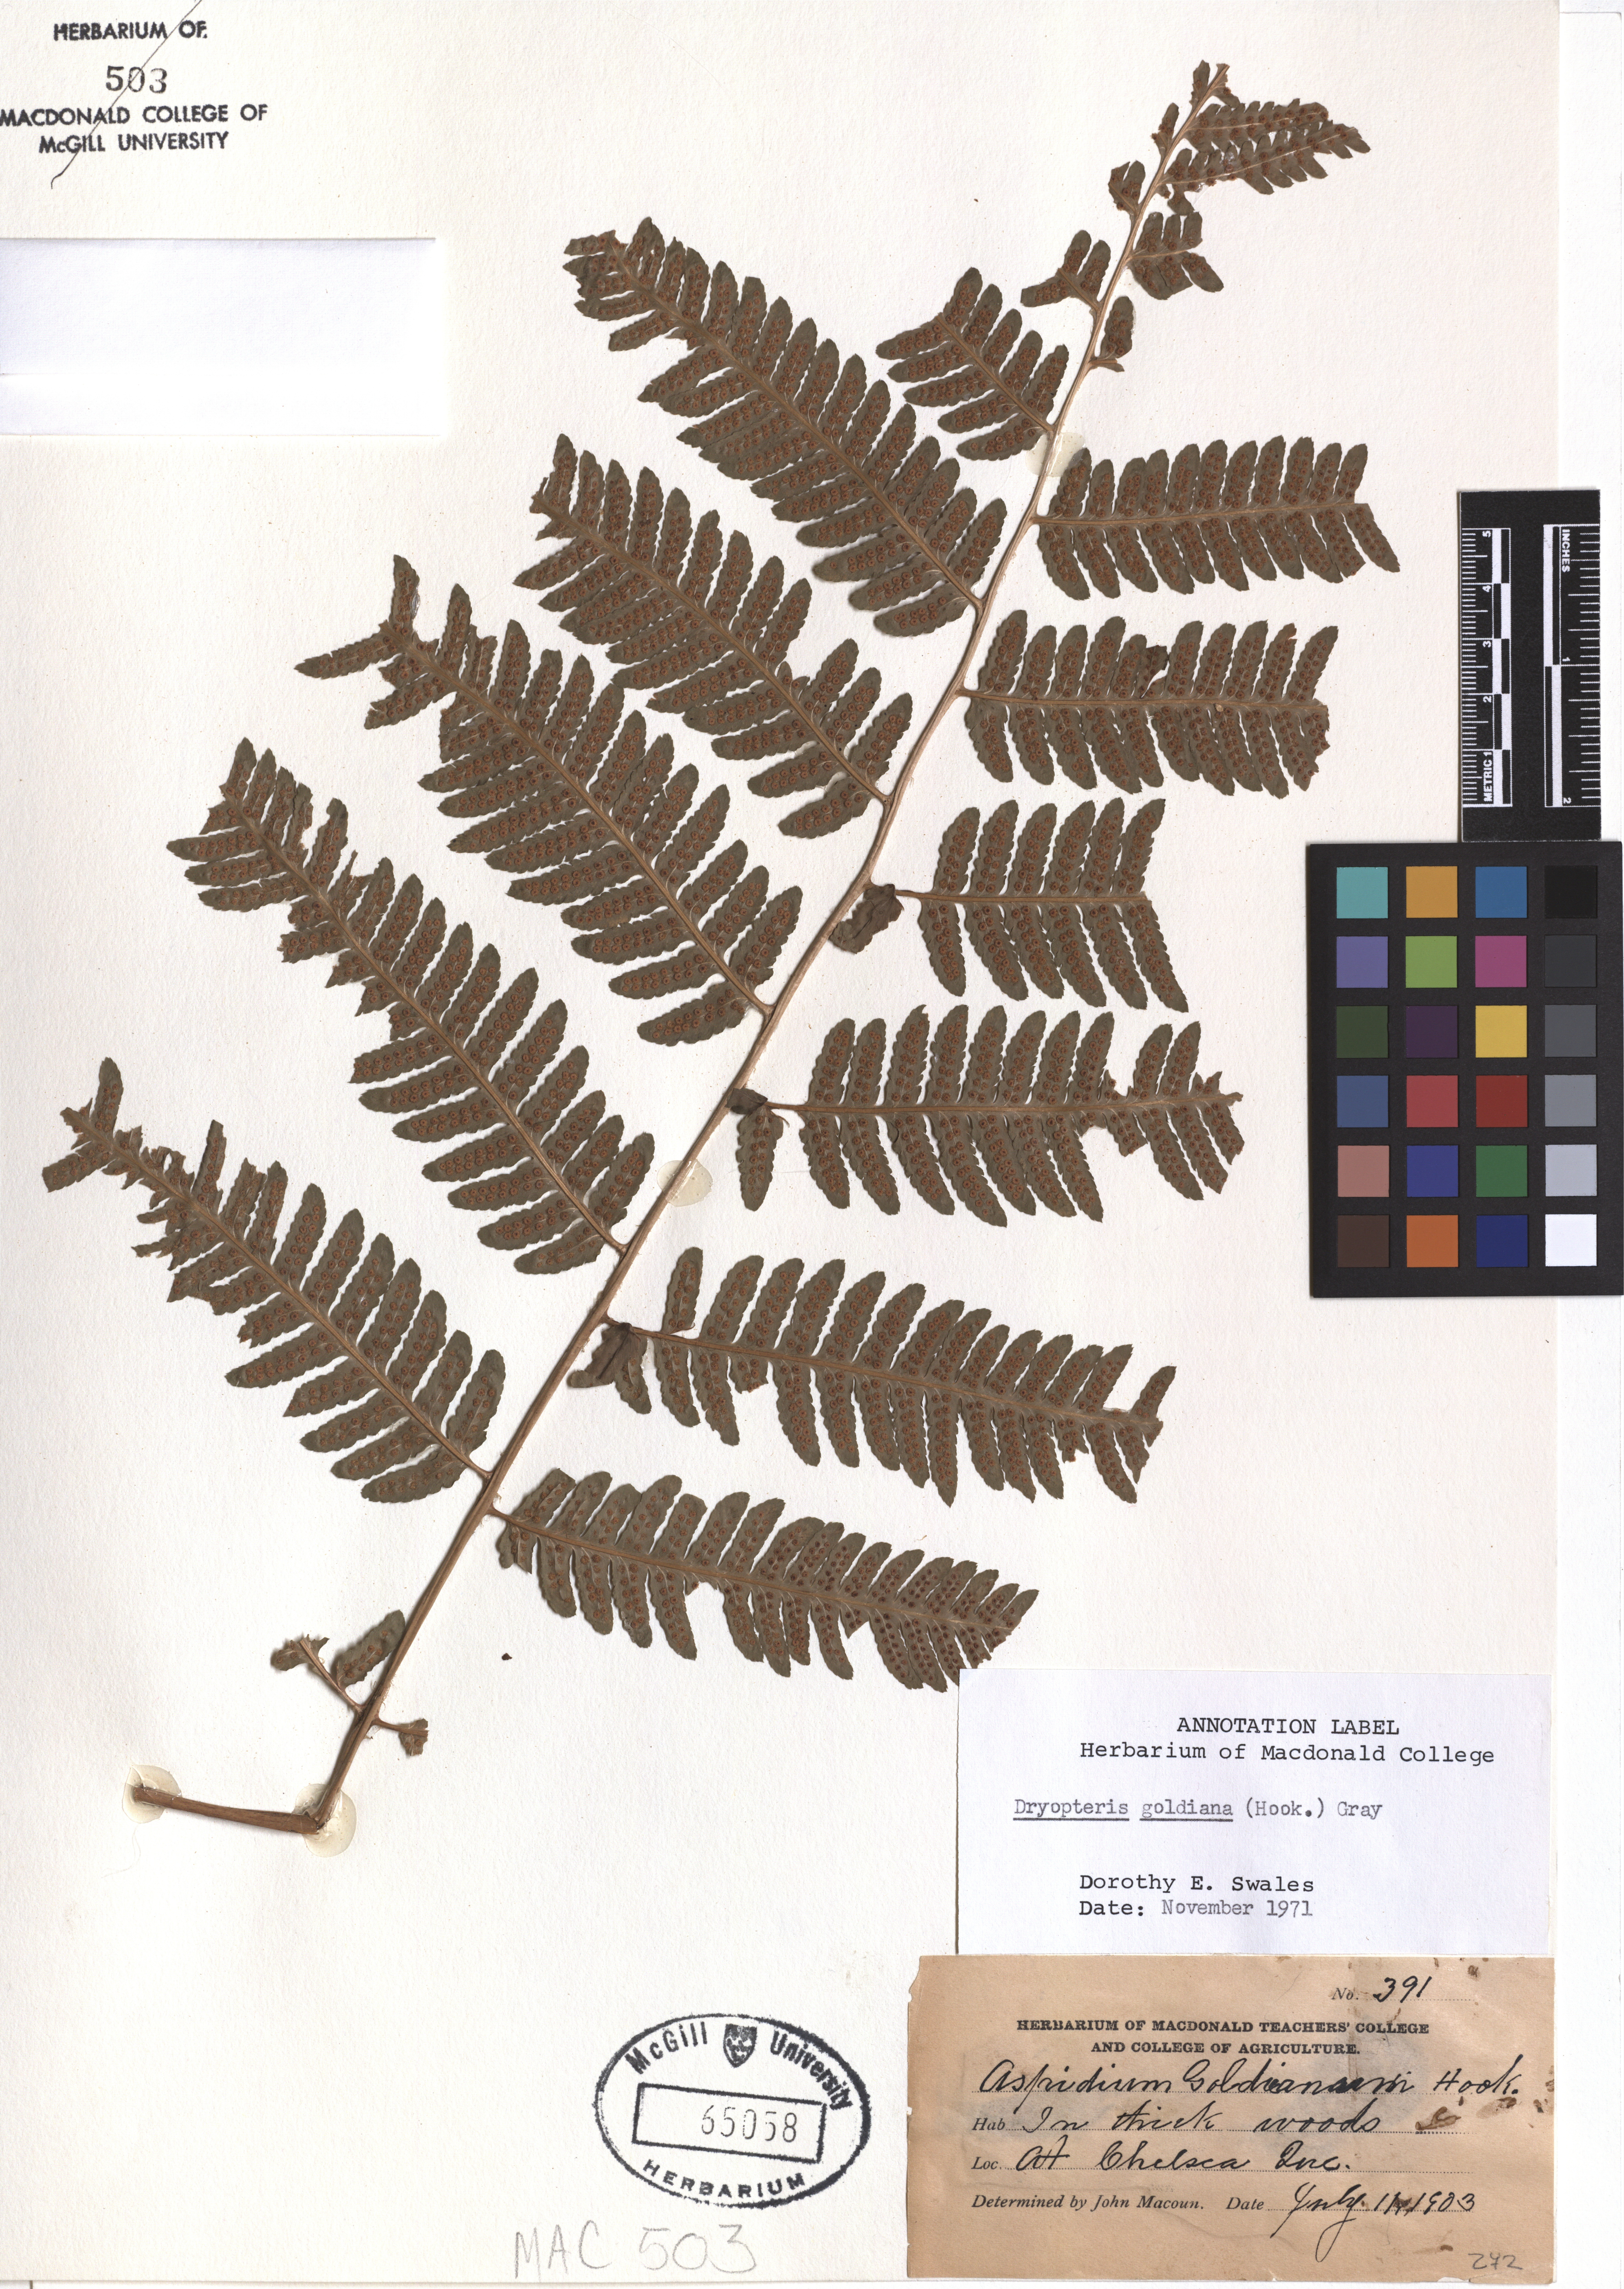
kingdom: Plantae
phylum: Tracheophyta
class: Polypodiopsida
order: Polypodiales
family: Dryopteridaceae
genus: Dryopteris
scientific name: Dryopteris goeldiana
